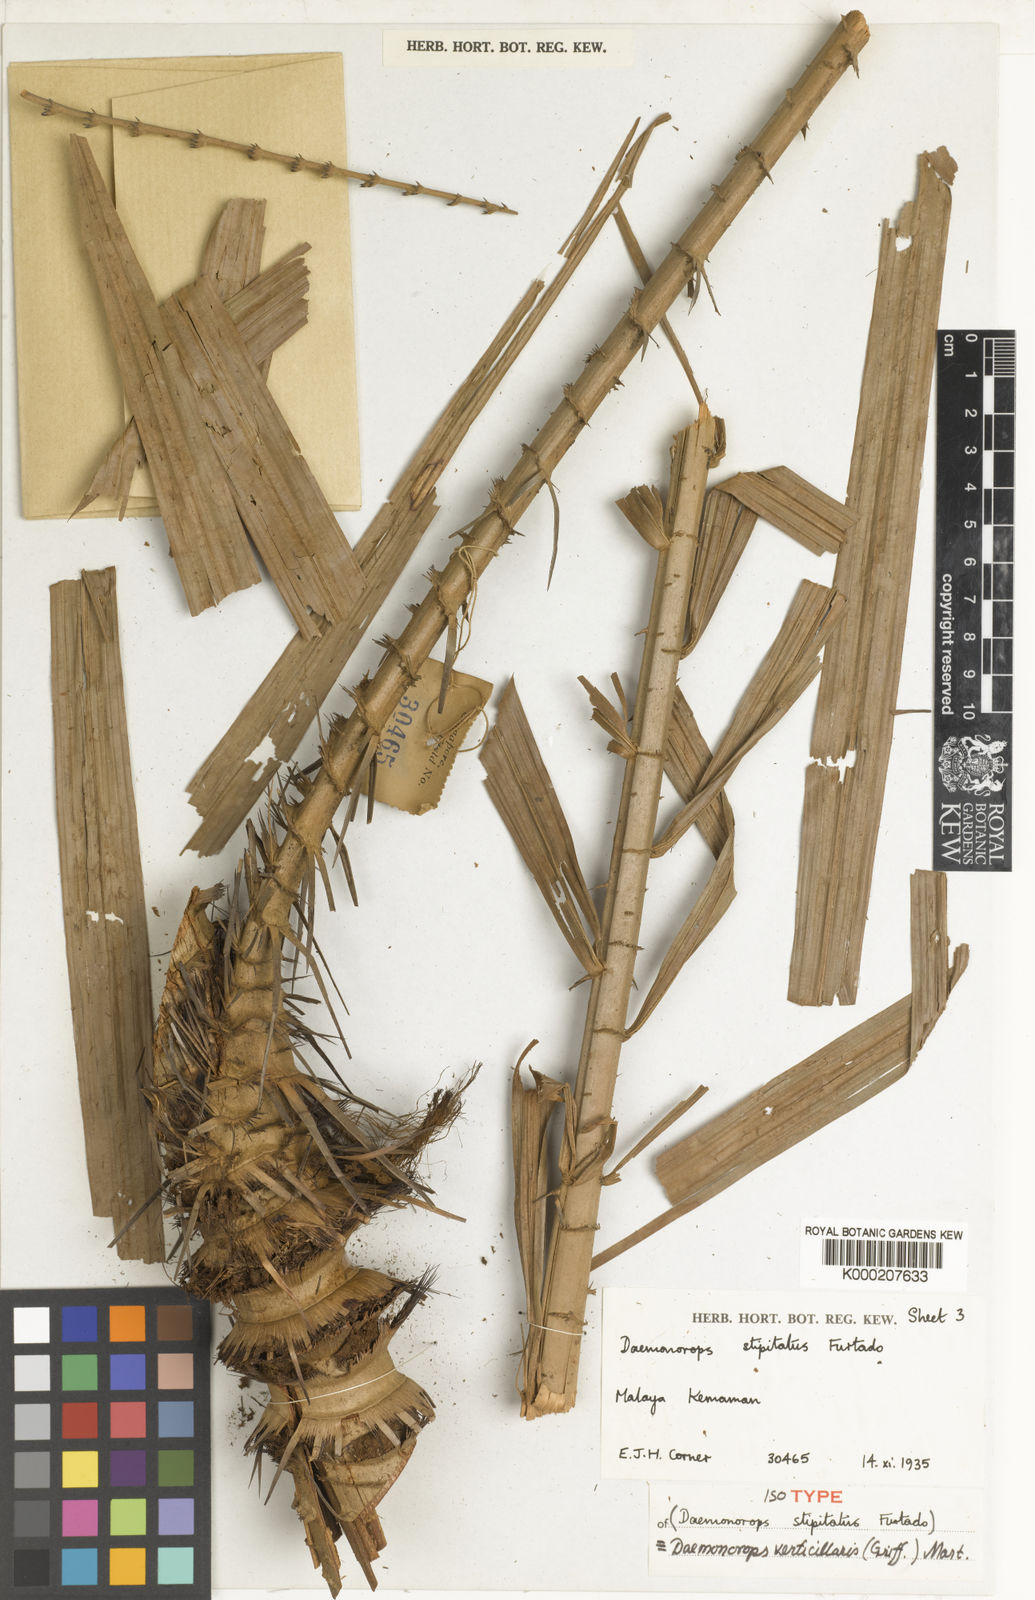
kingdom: Plantae
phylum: Tracheophyta
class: Liliopsida
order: Arecales
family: Arecaceae
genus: Calamus
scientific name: Calamus verticillaris
